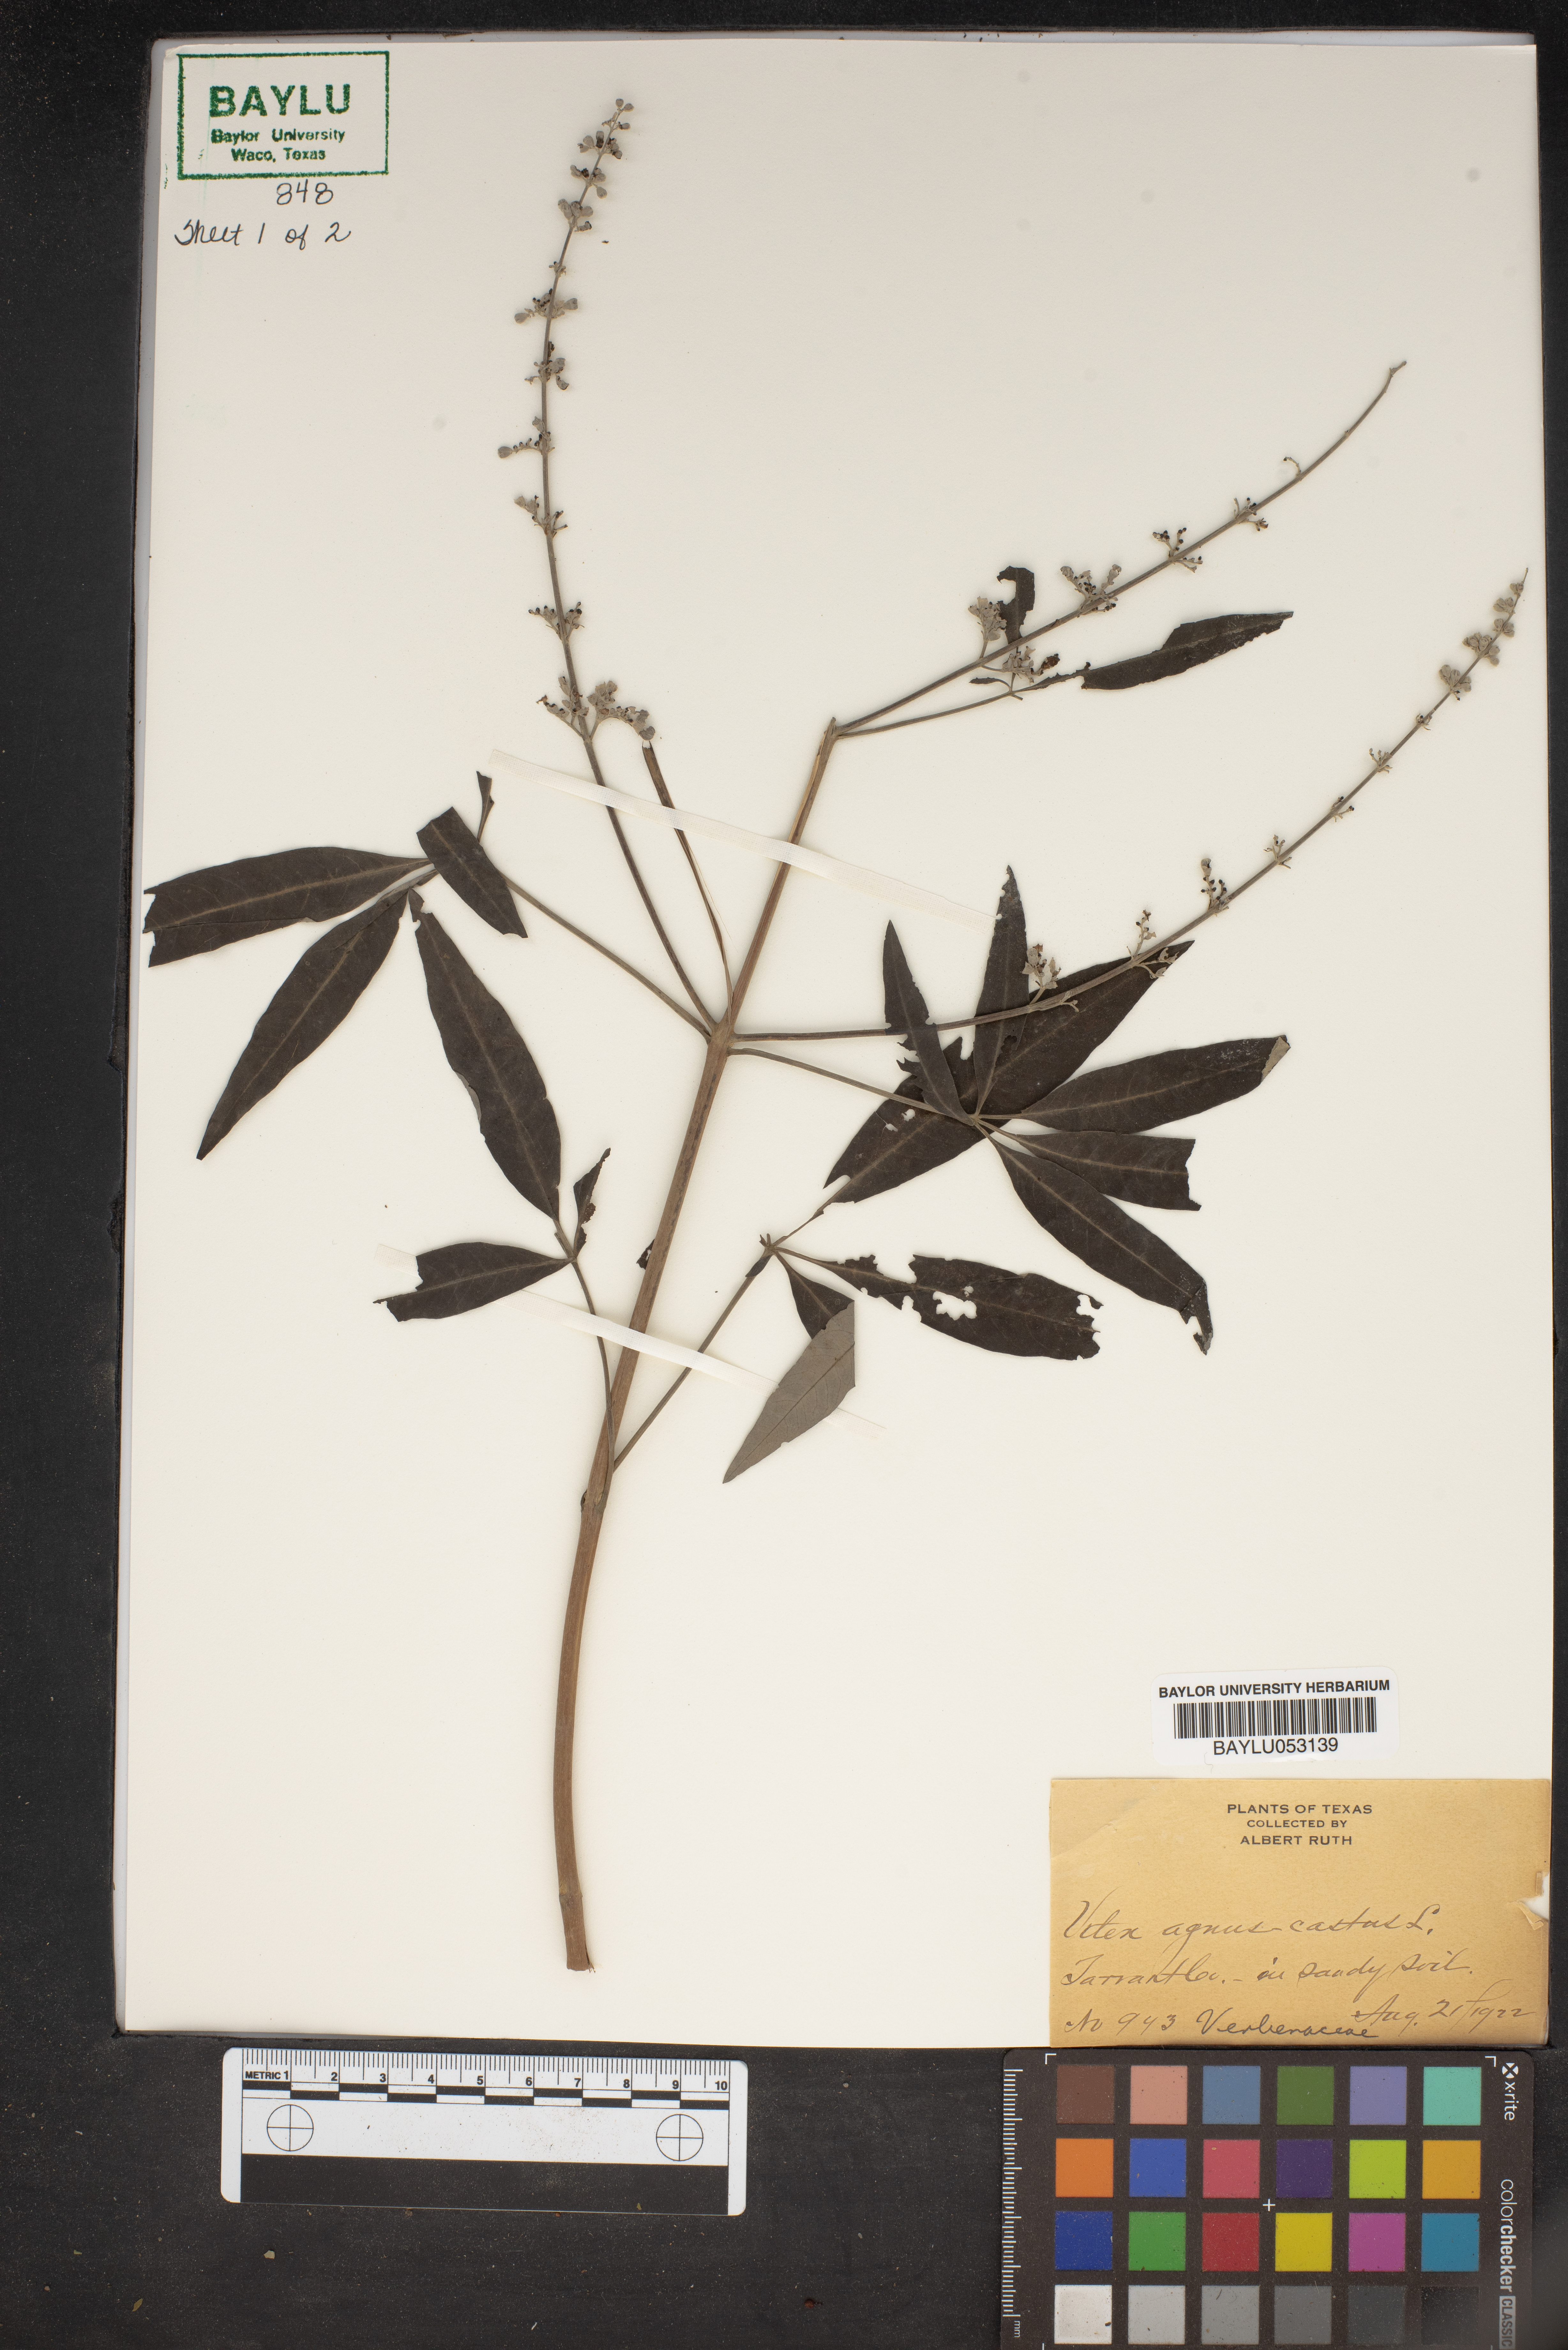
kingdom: Plantae
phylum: Tracheophyta
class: Magnoliopsida
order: Lamiales
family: Lamiaceae
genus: Vitex
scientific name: Vitex agnus-castus
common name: Chasteberry
